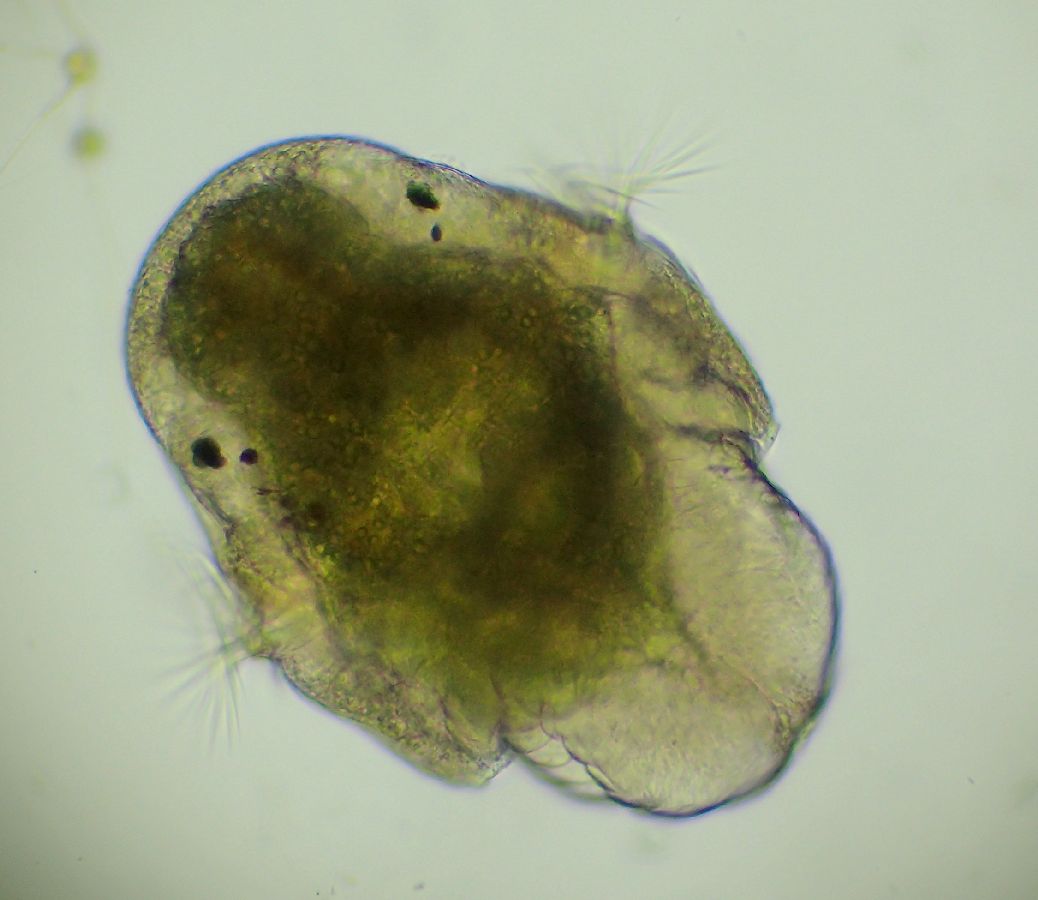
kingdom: Animalia
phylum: Annelida
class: Polychaeta
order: Phyllodocida
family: Phyllodocidae
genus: Phyllodoce
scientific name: Phyllodoce maculata
